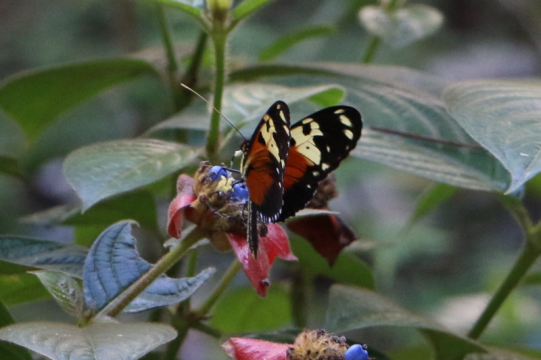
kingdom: Animalia
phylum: Arthropoda
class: Insecta
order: Lepidoptera
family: Nymphalidae
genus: Heliconius
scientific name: Heliconius ismenius
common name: Tiger-striped Longwing
